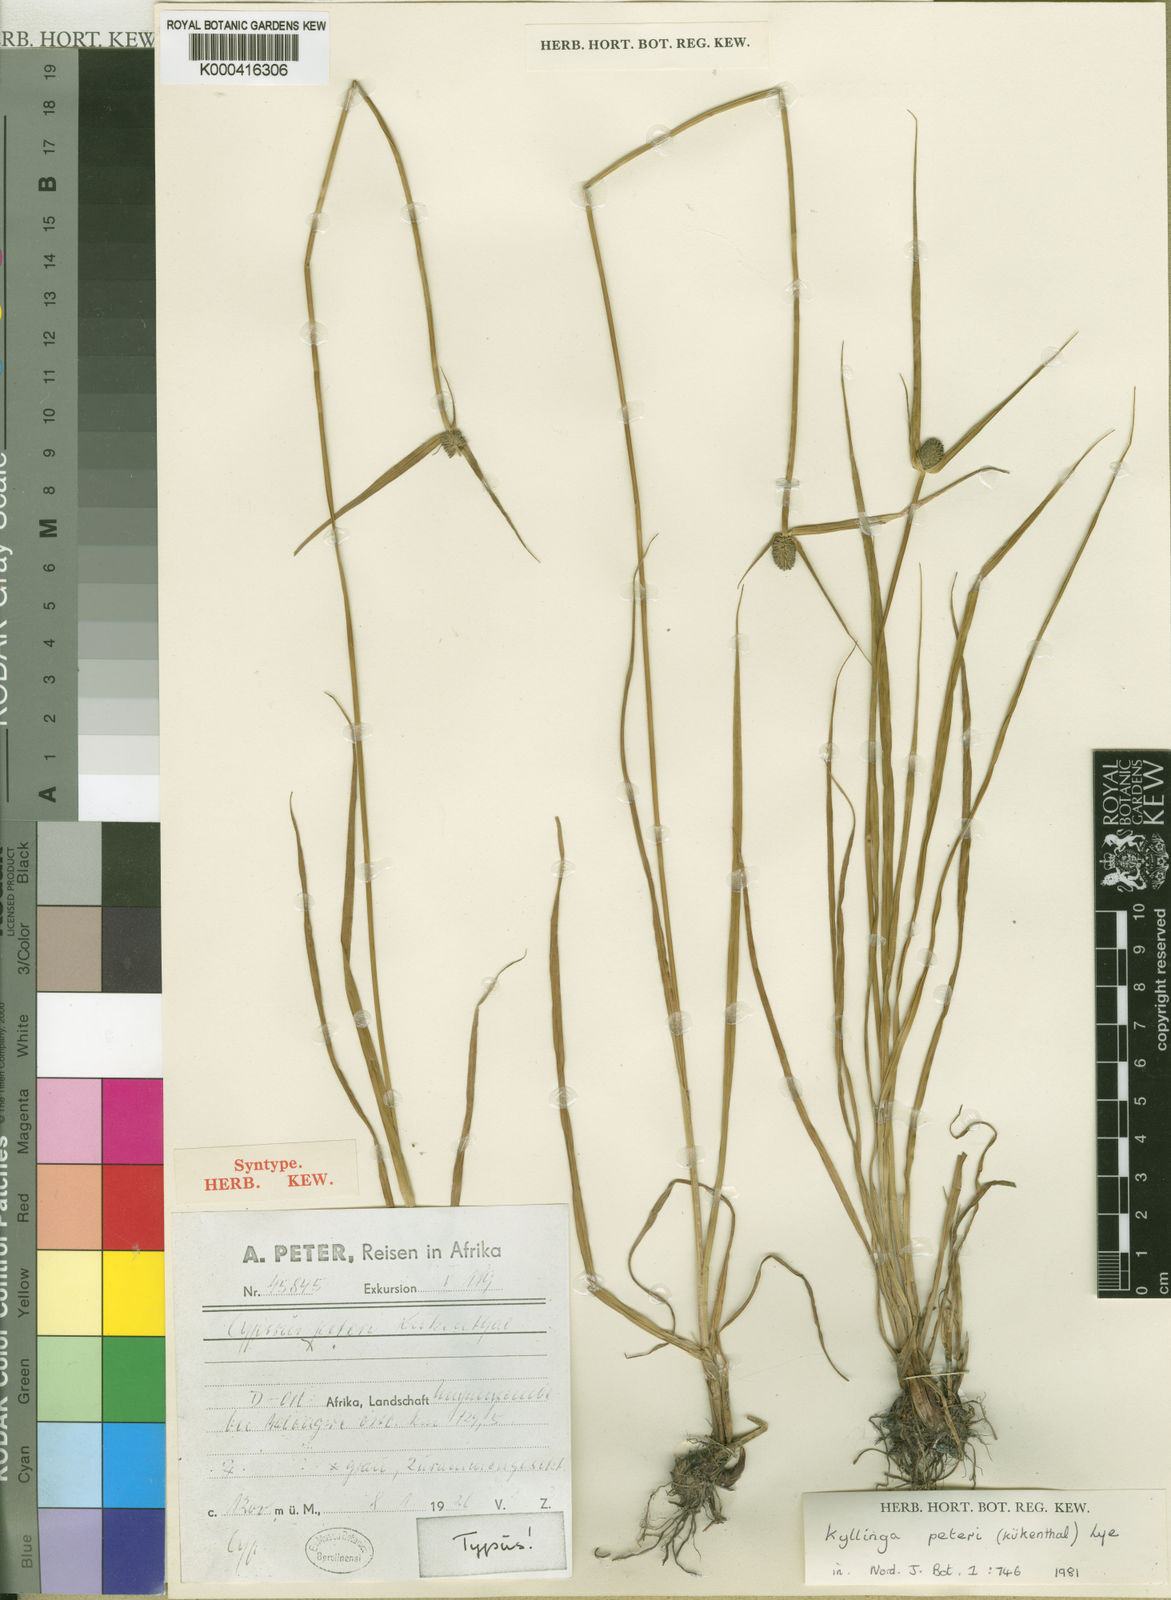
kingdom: Plantae
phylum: Tracheophyta
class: Liliopsida
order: Poales
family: Cyperaceae
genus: Cyperus
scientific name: Cyperus
